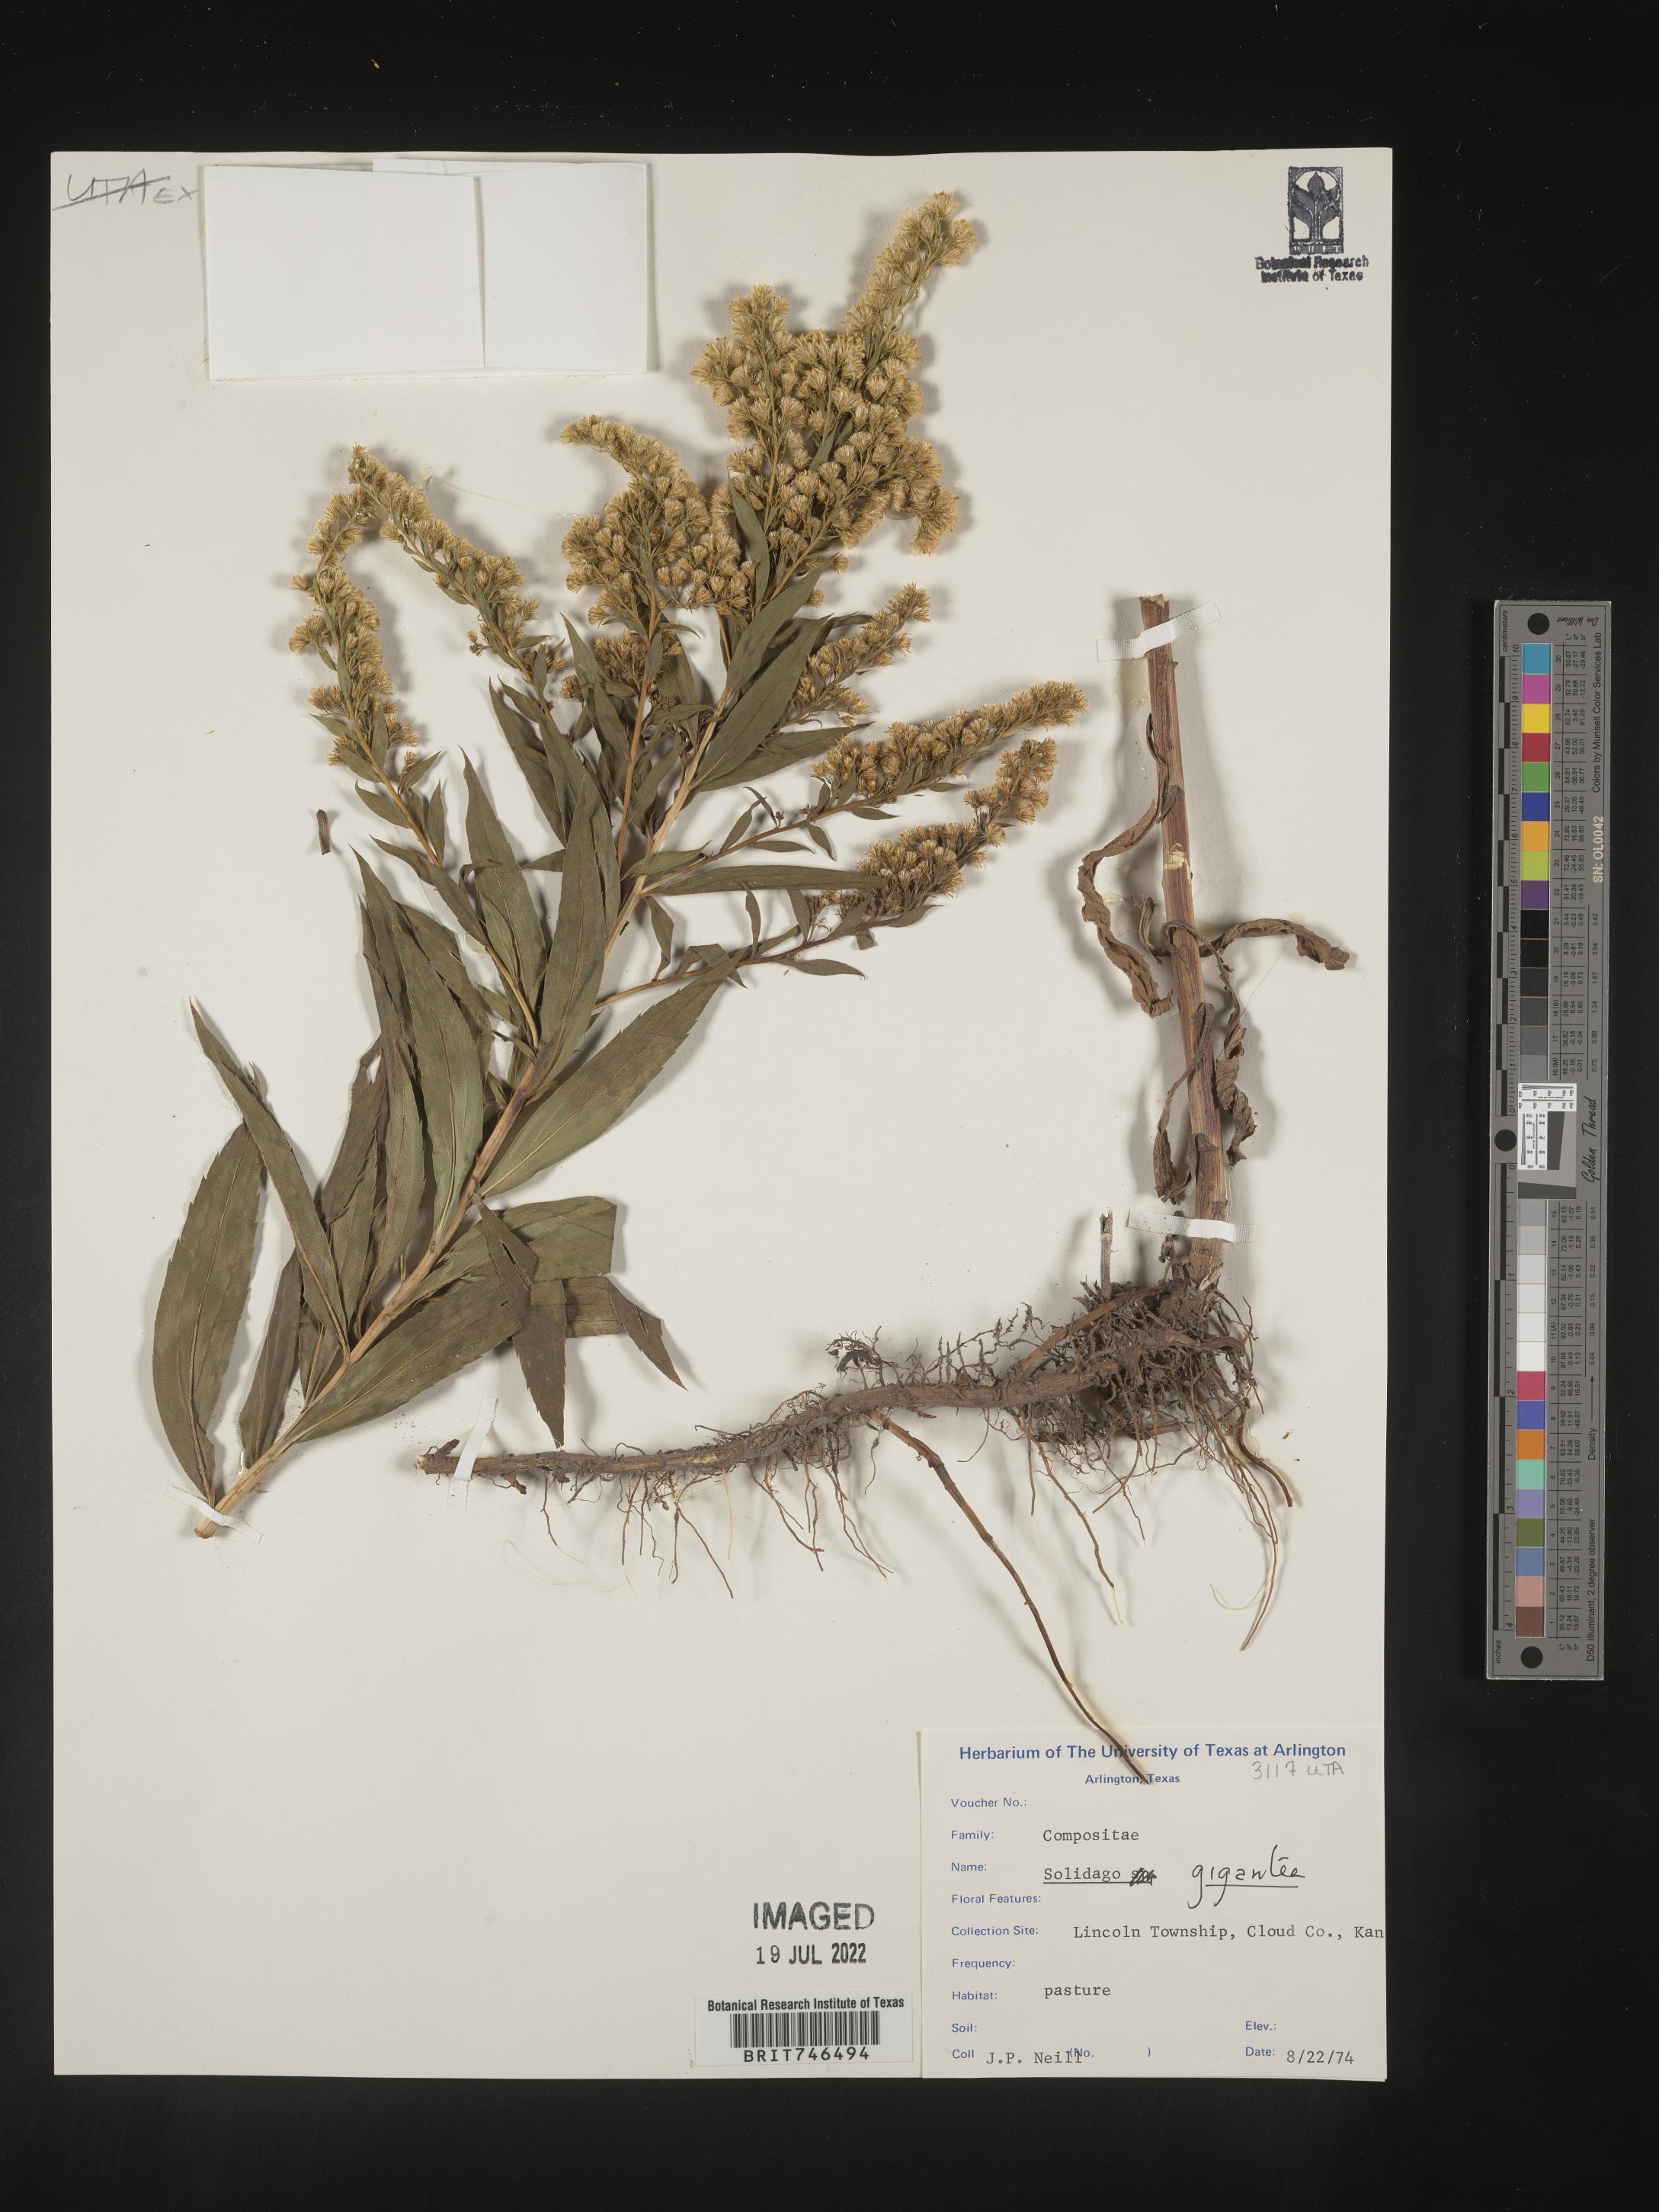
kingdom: Plantae
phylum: Tracheophyta
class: Magnoliopsida
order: Asterales
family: Asteraceae
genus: Solidago
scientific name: Solidago gigantea
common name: Giant goldenrod
